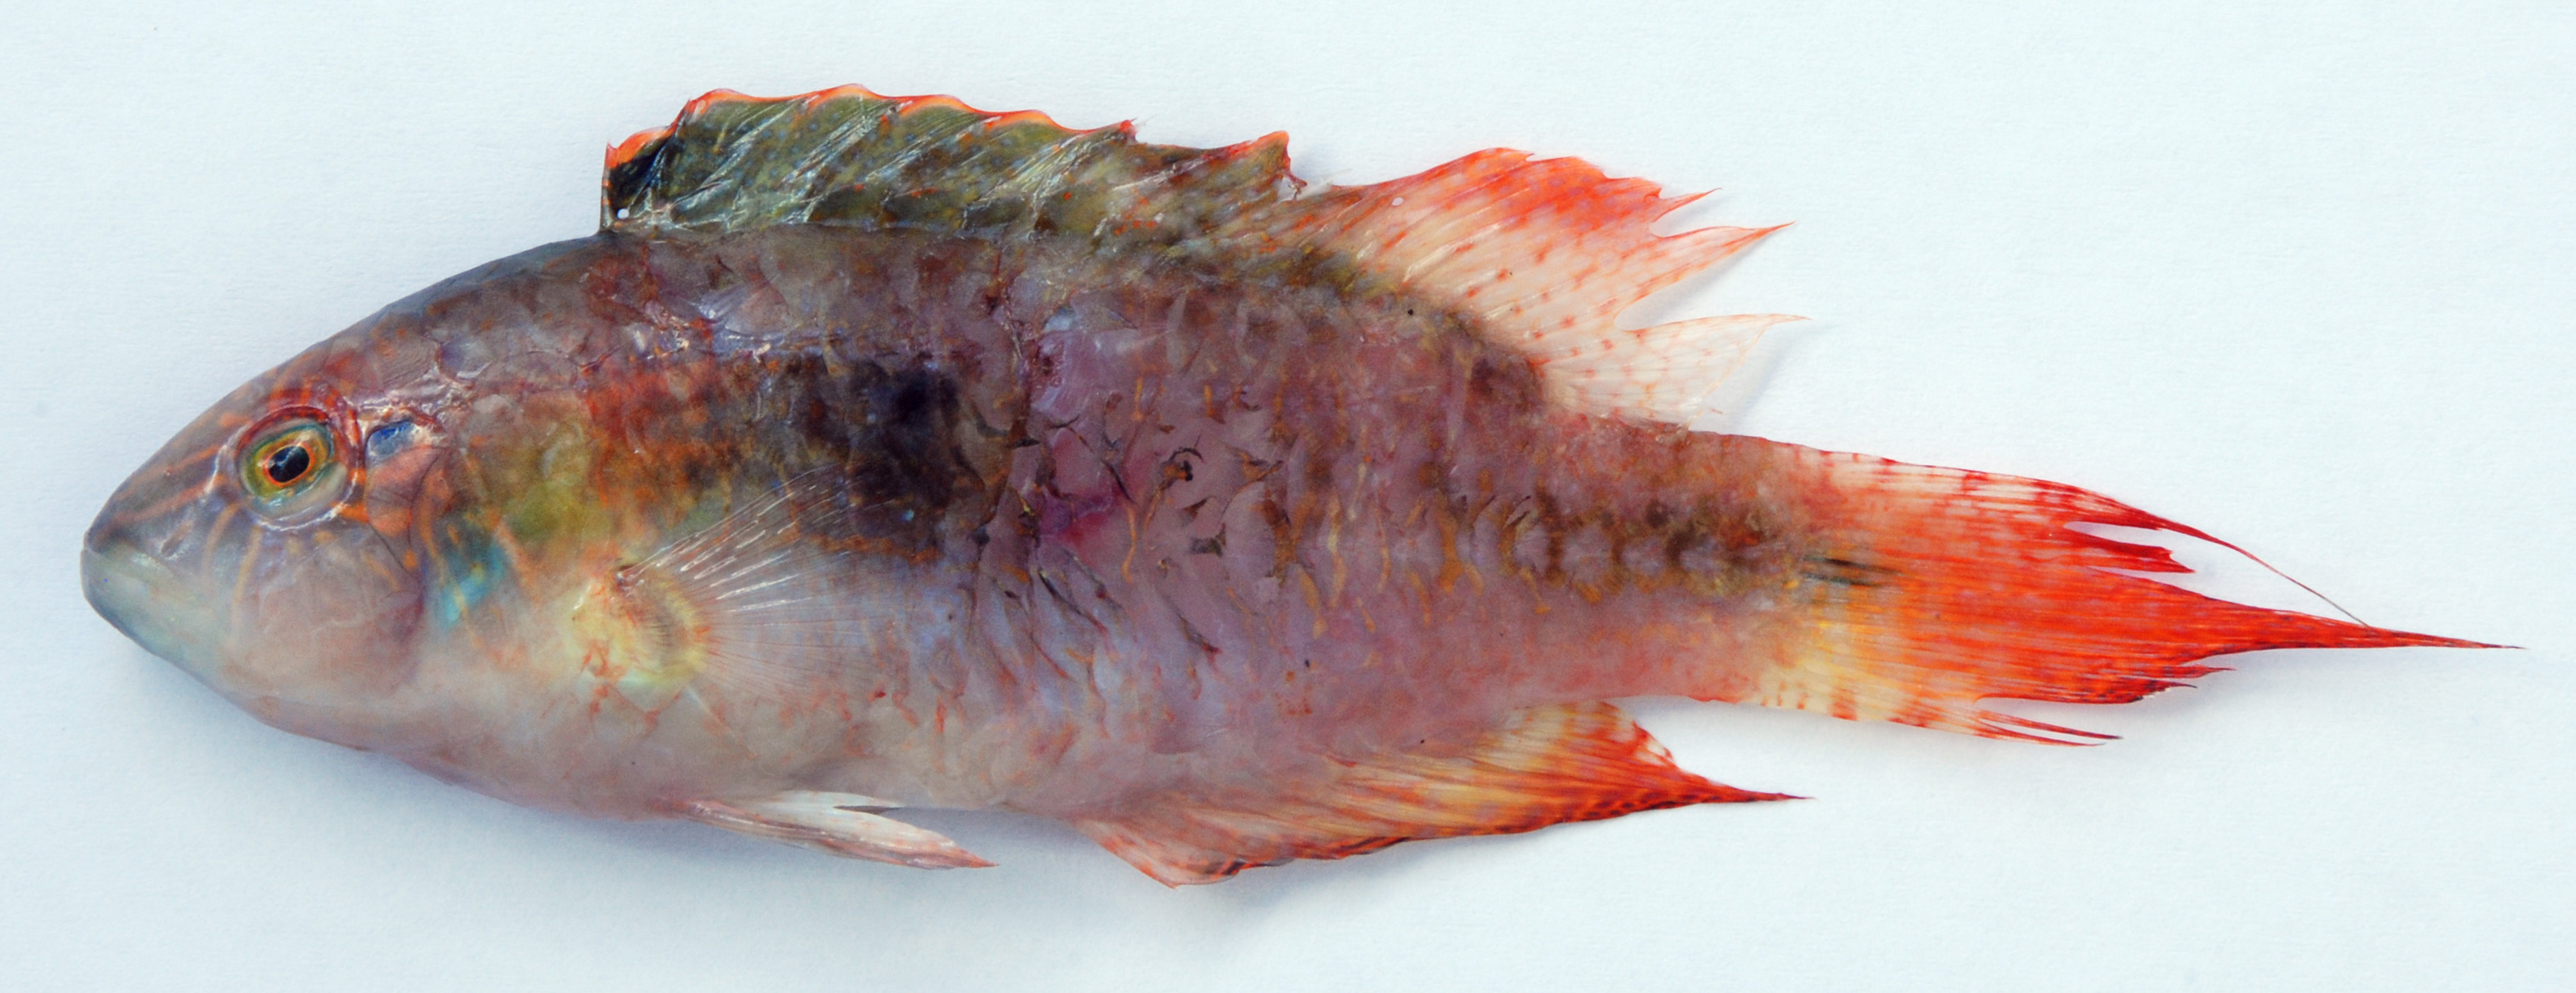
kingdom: Animalia
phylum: Chordata
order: Perciformes
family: Labridae
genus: Oxycheilinus
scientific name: Oxycheilinus bimaculatus
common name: Comettailed wrasse
